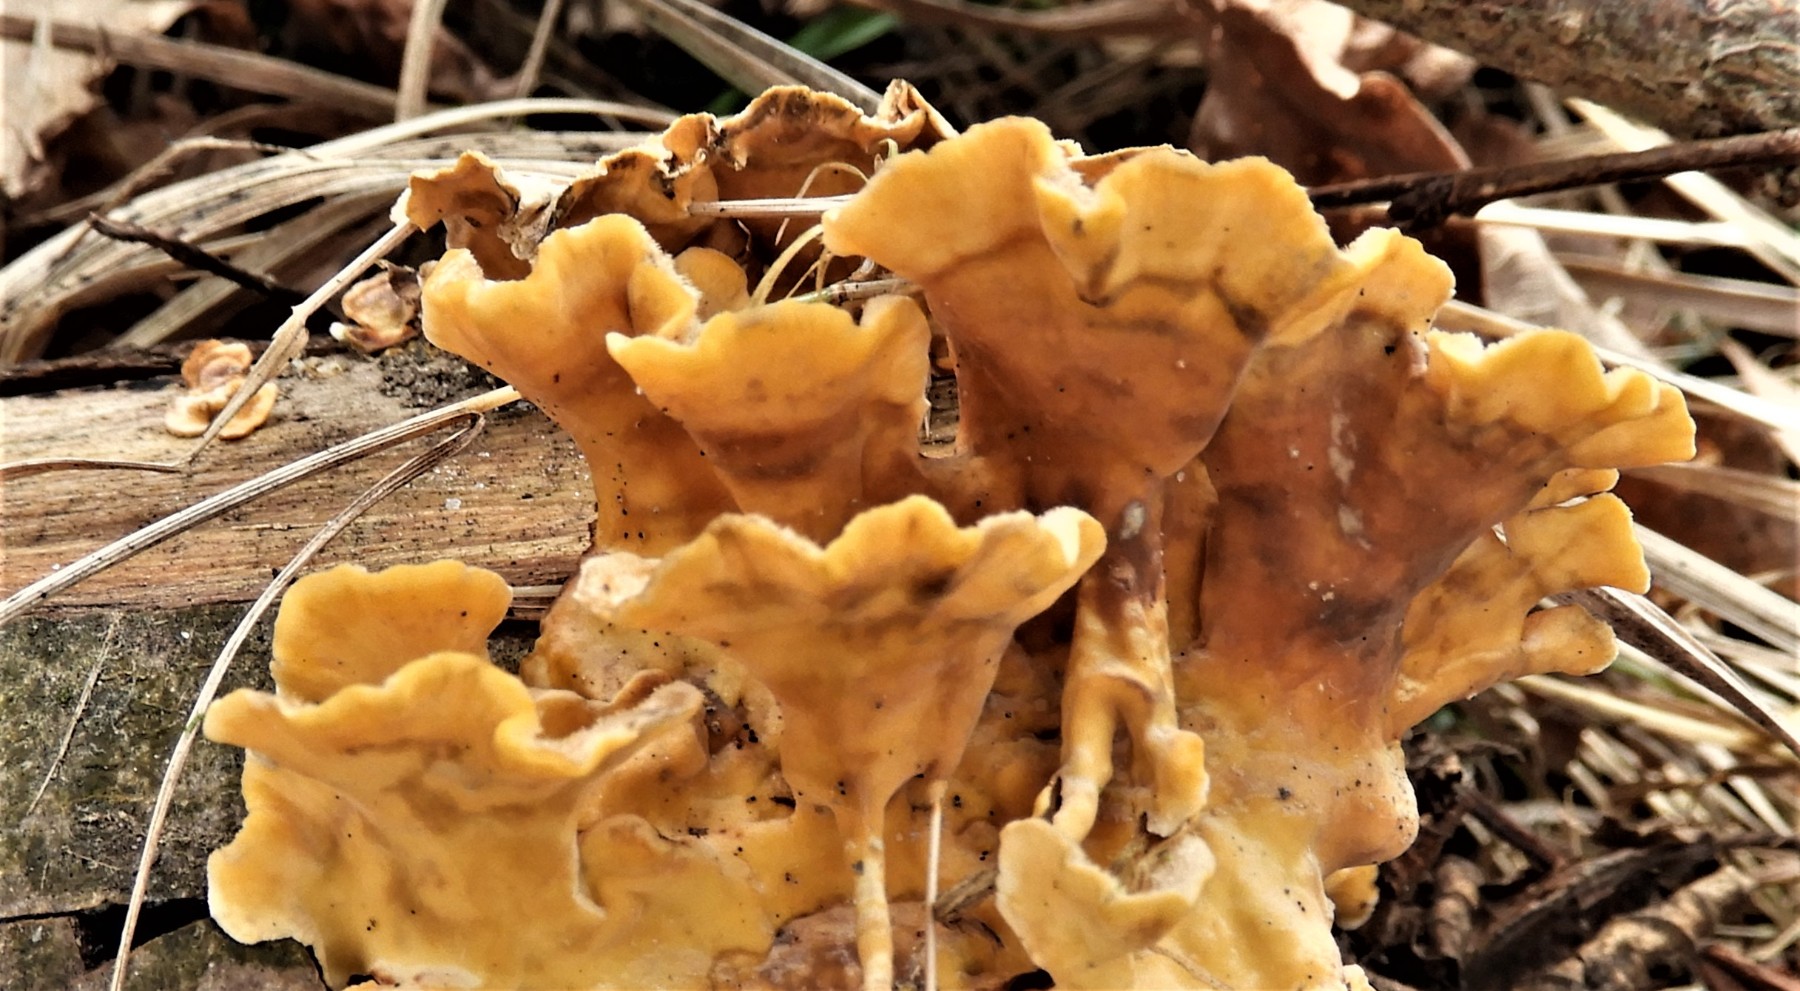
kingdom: Fungi
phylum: Basidiomycota
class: Agaricomycetes
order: Russulales
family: Stereaceae
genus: Stereum
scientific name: Stereum hirsutum
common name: håret lædersvamp
